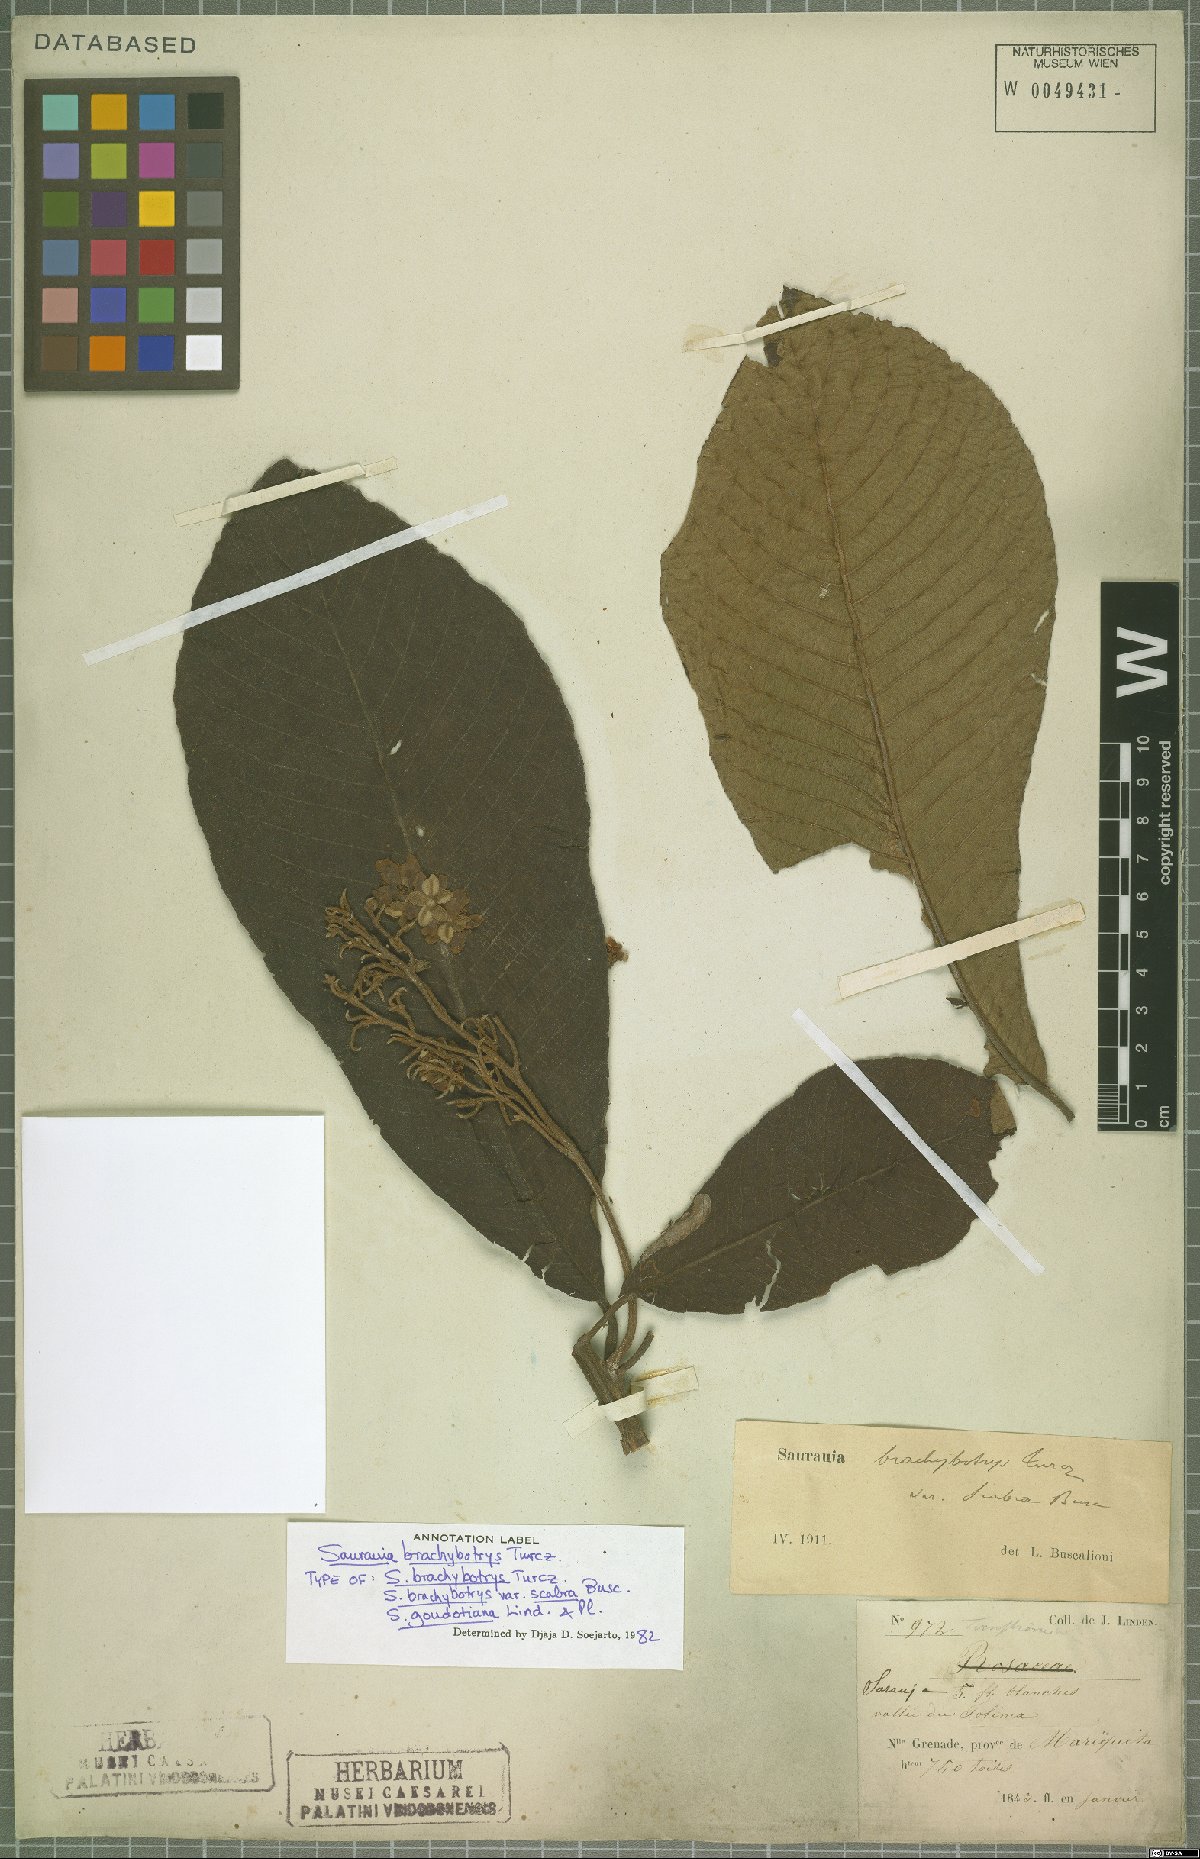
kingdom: Plantae
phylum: Tracheophyta
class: Magnoliopsida
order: Ericales
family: Actinidiaceae
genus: Saurauia
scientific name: Saurauia brachybotrys
